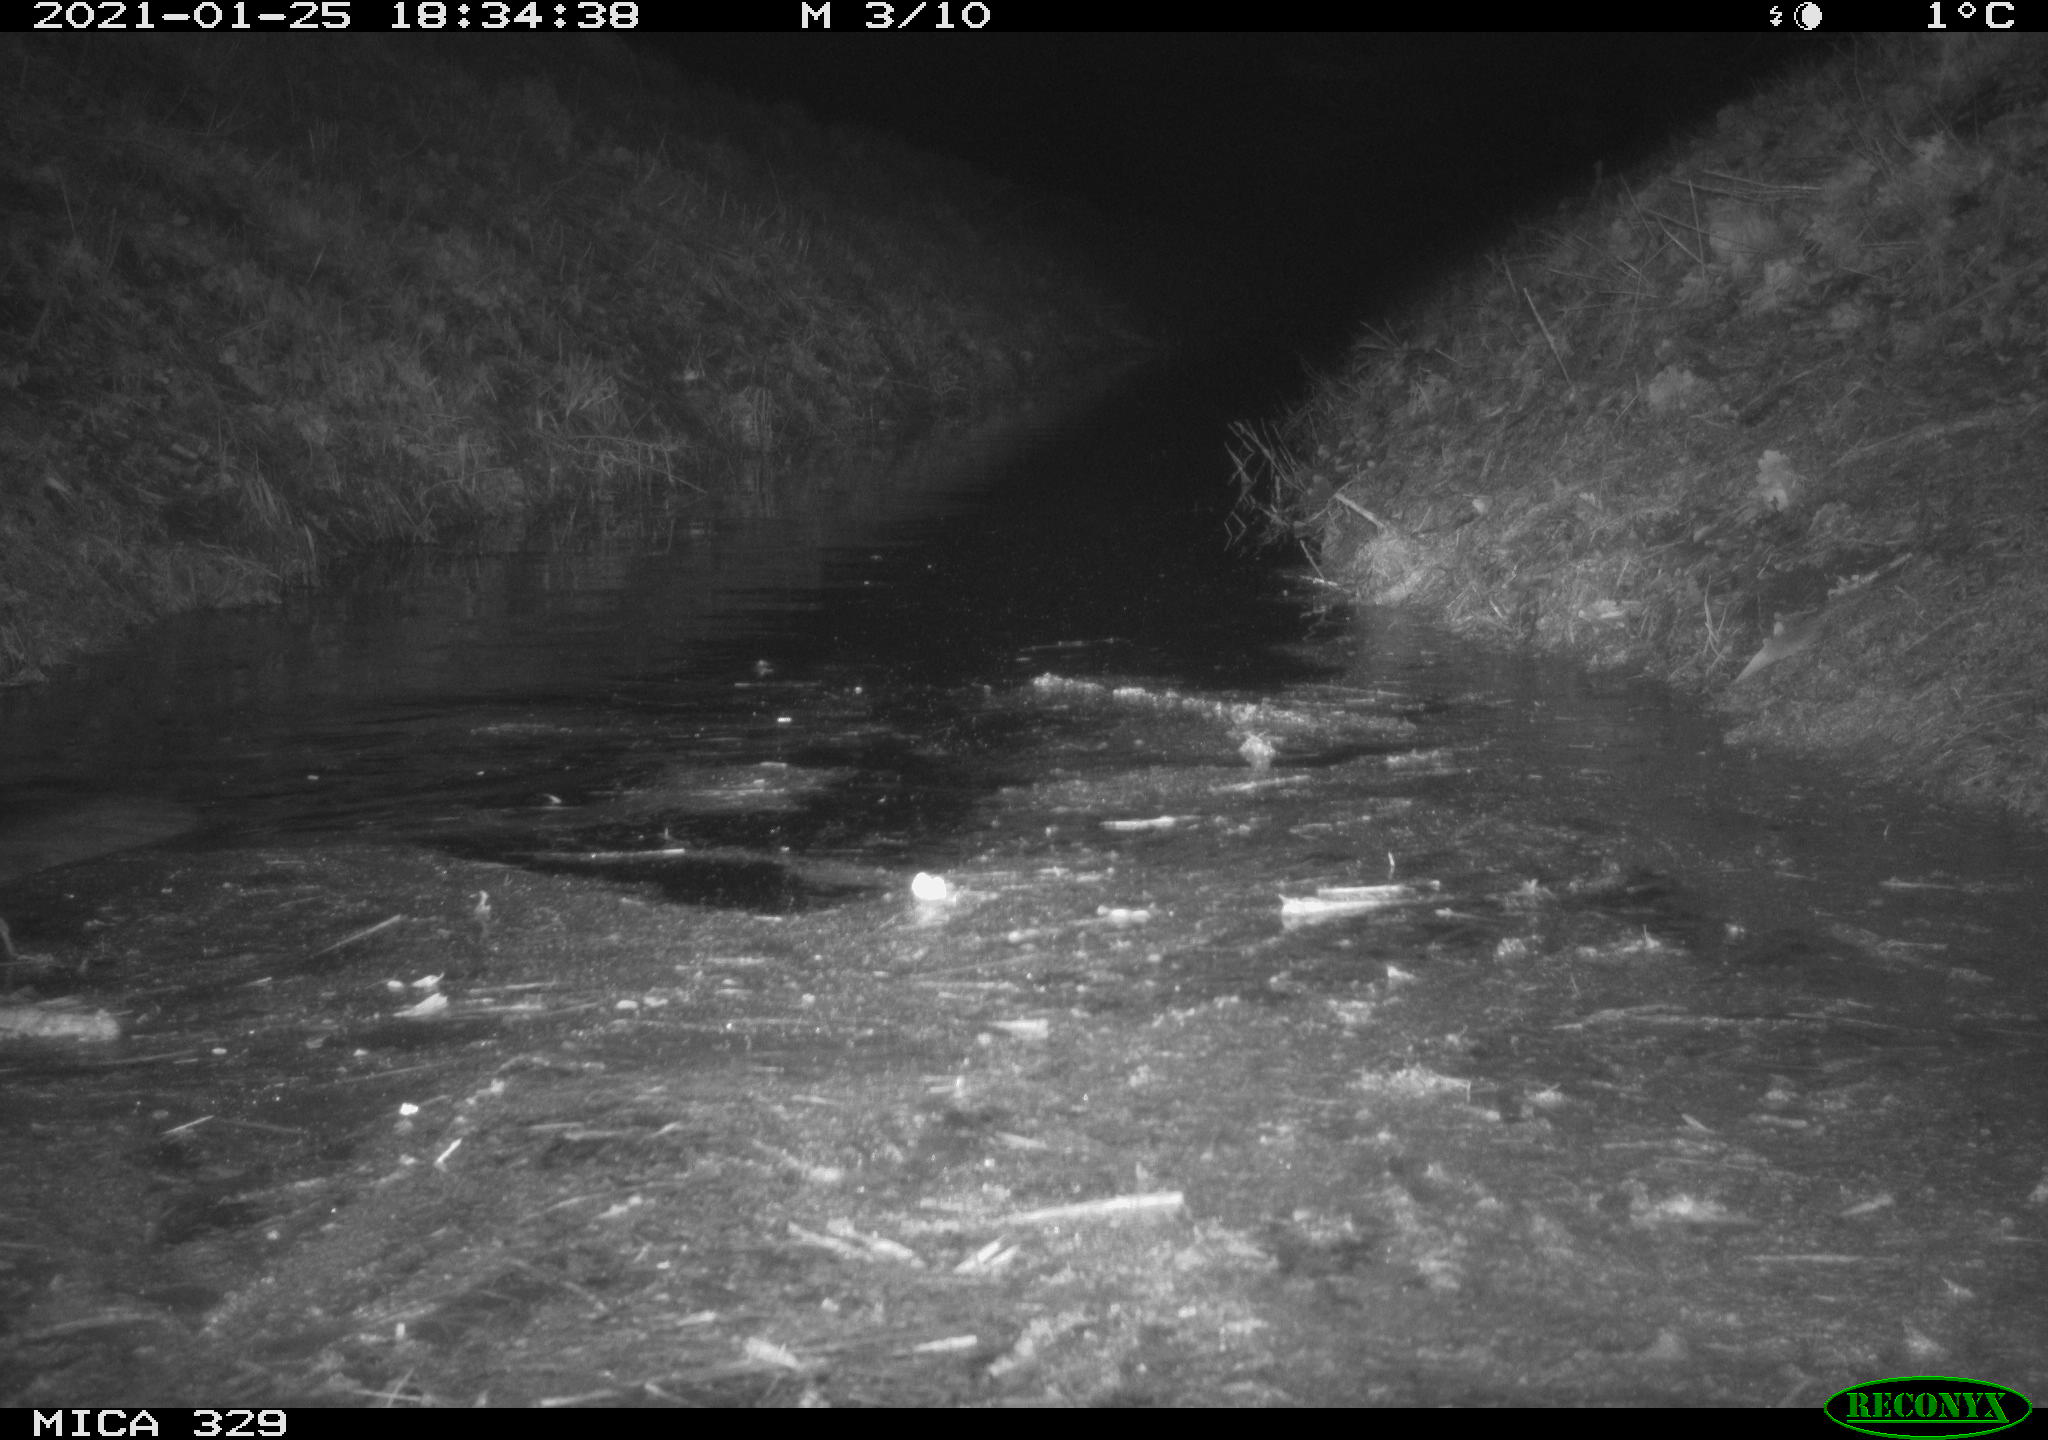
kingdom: Animalia
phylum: Chordata
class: Mammalia
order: Rodentia
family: Myocastoridae
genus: Myocastor
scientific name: Myocastor coypus
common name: Coypu
